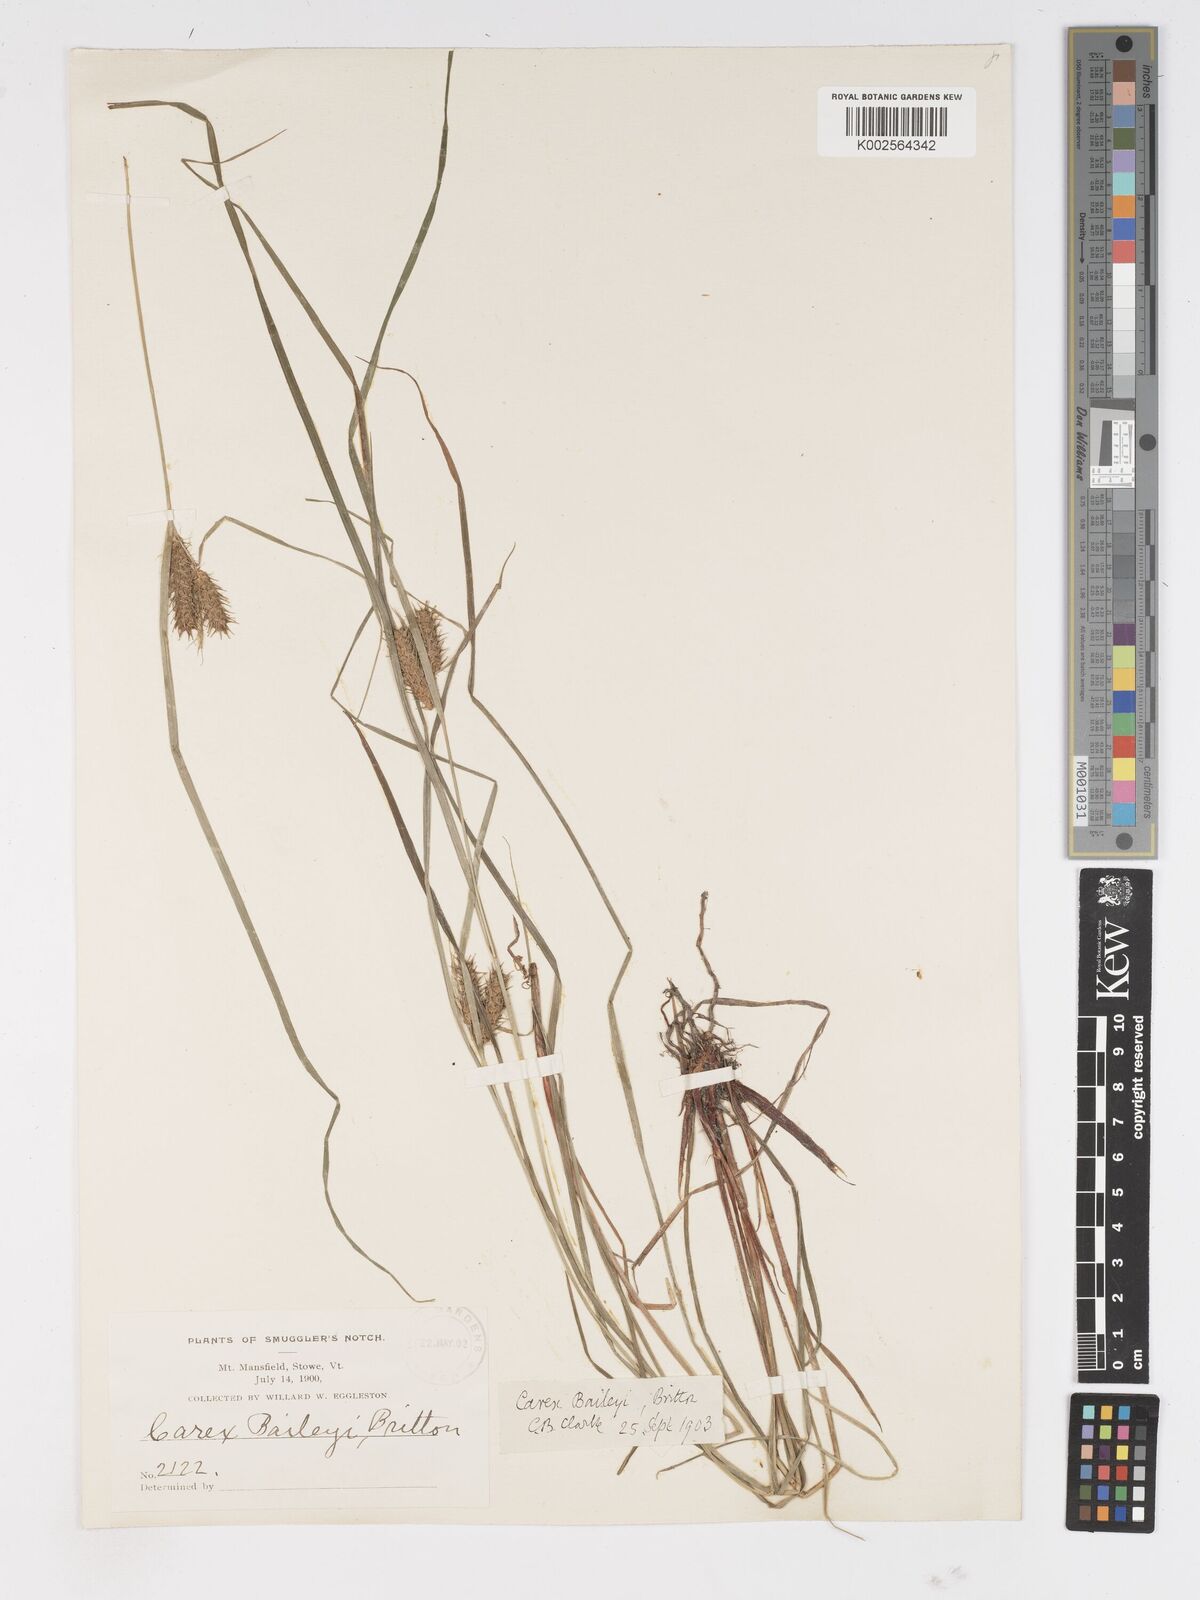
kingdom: Plantae
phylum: Tracheophyta
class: Liliopsida
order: Poales
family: Cyperaceae
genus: Carex
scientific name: Carex baileyi
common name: Bailey's sedge
